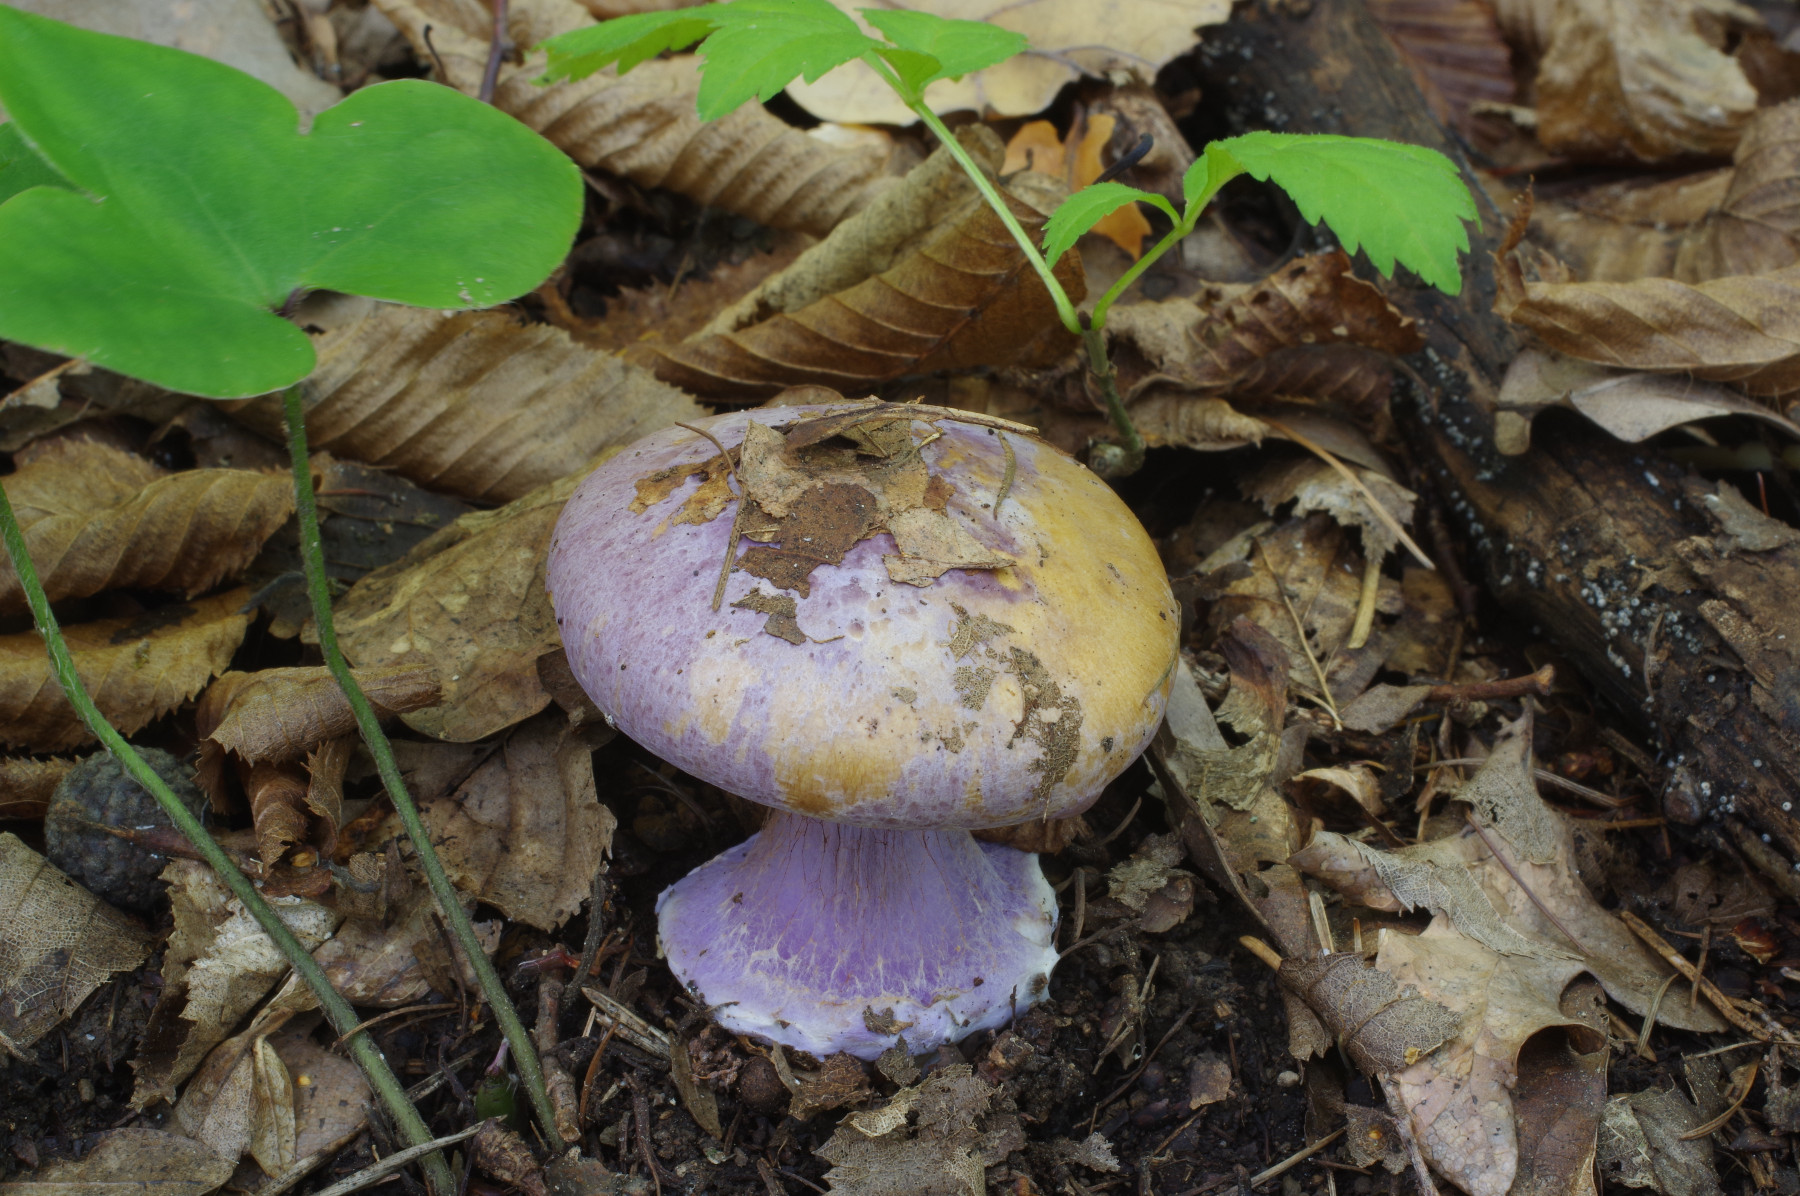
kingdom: Fungi
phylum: Basidiomycota
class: Agaricomycetes
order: Agaricales
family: Cortinariaceae
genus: Calonarius
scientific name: Calonarius sodagnitus
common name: violblå slørhat
